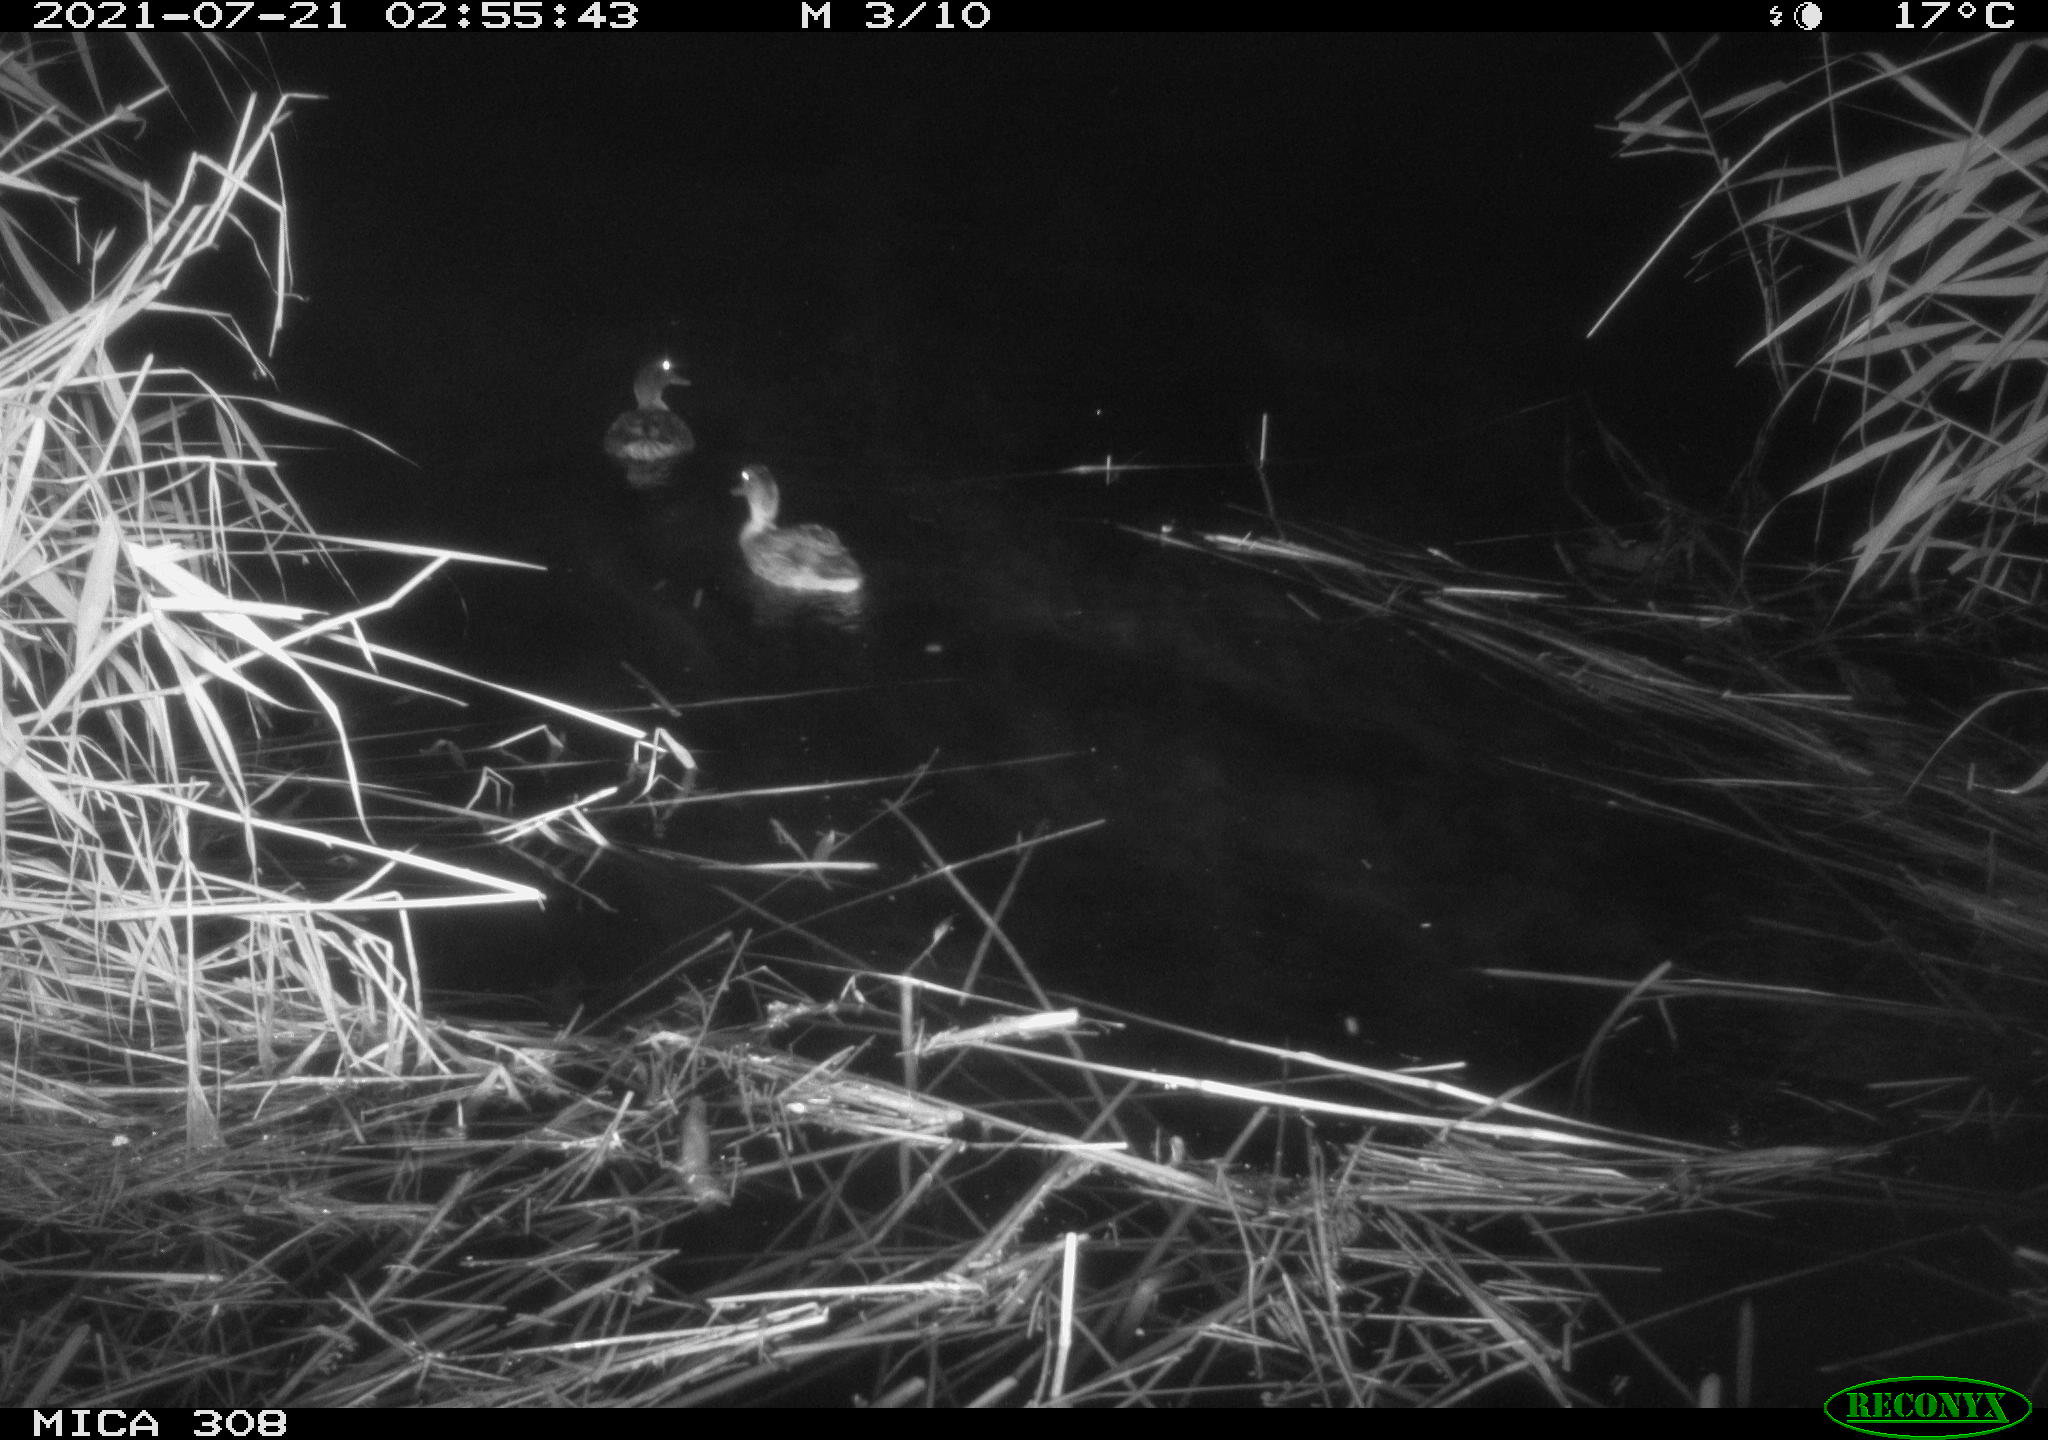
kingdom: Animalia
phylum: Chordata
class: Aves
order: Anseriformes
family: Anatidae
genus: Anas
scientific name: Anas platyrhynchos
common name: Mallard
